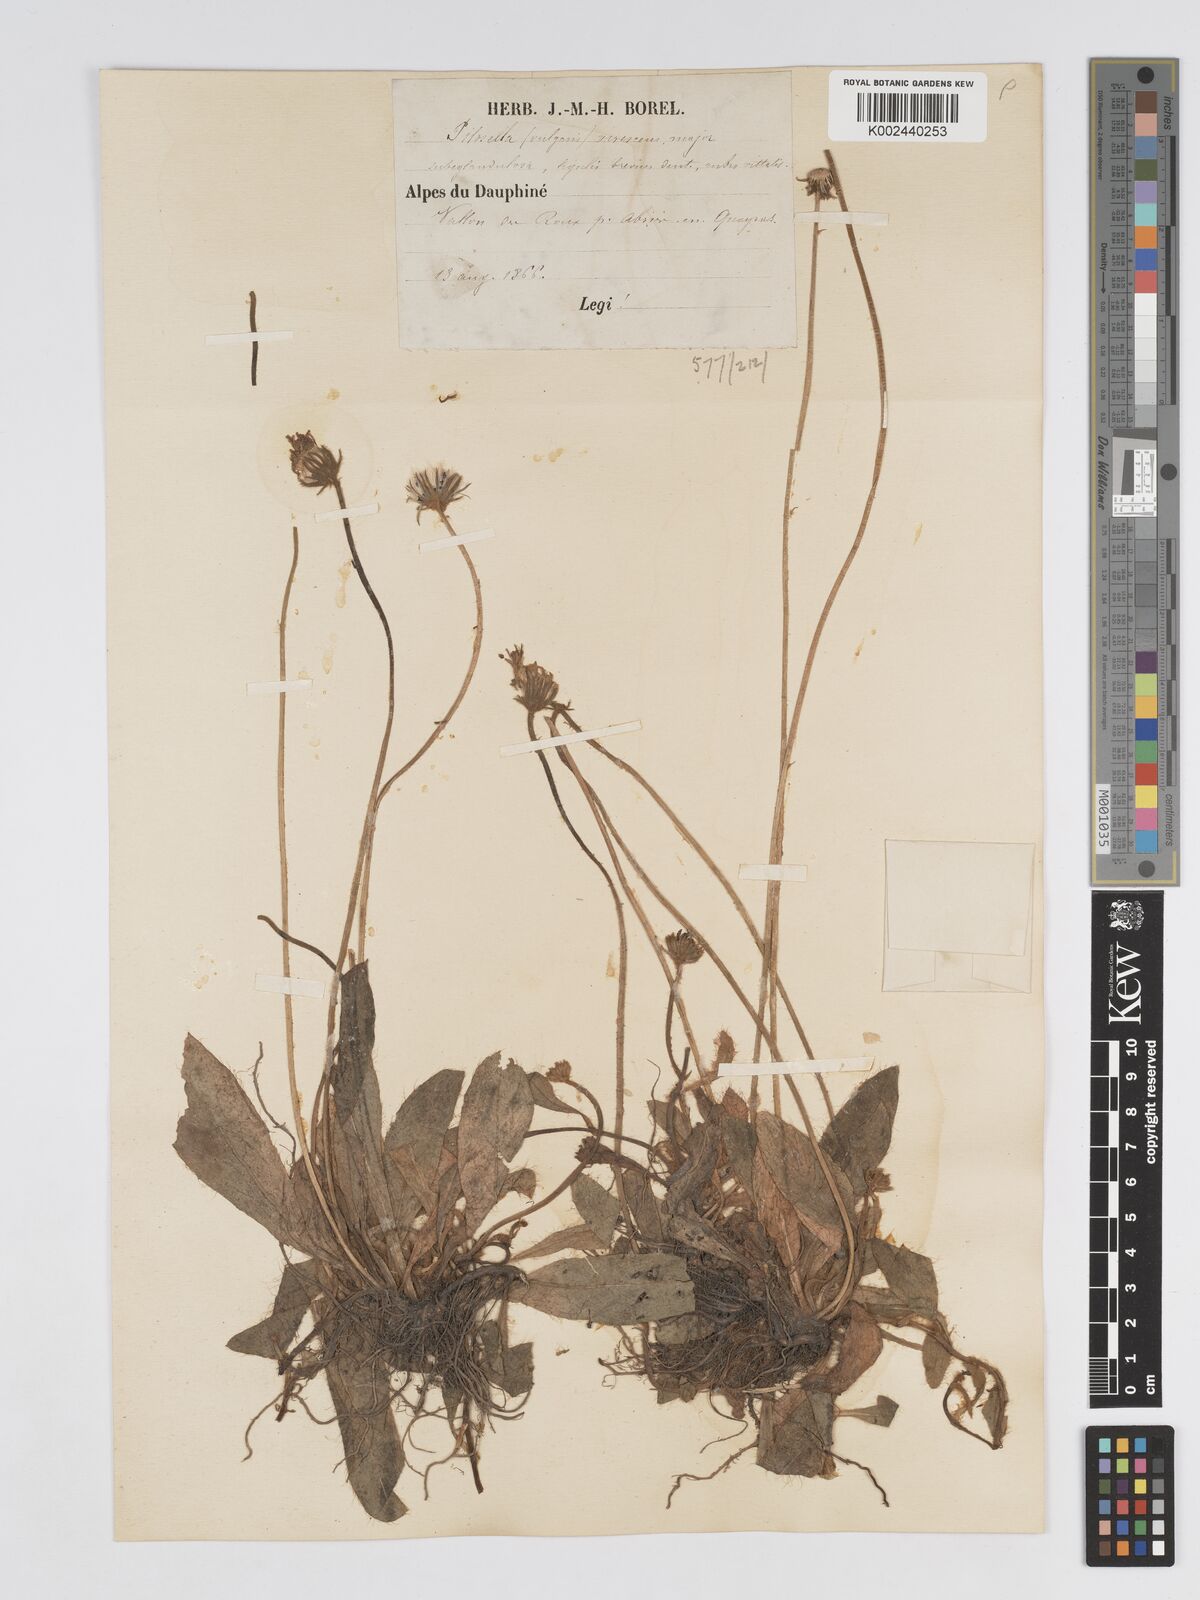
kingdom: Plantae
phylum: Tracheophyta
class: Magnoliopsida
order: Asterales
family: Asteraceae
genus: Pilosella
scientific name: Pilosella officinarum
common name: Mouse-ear hawkweed
